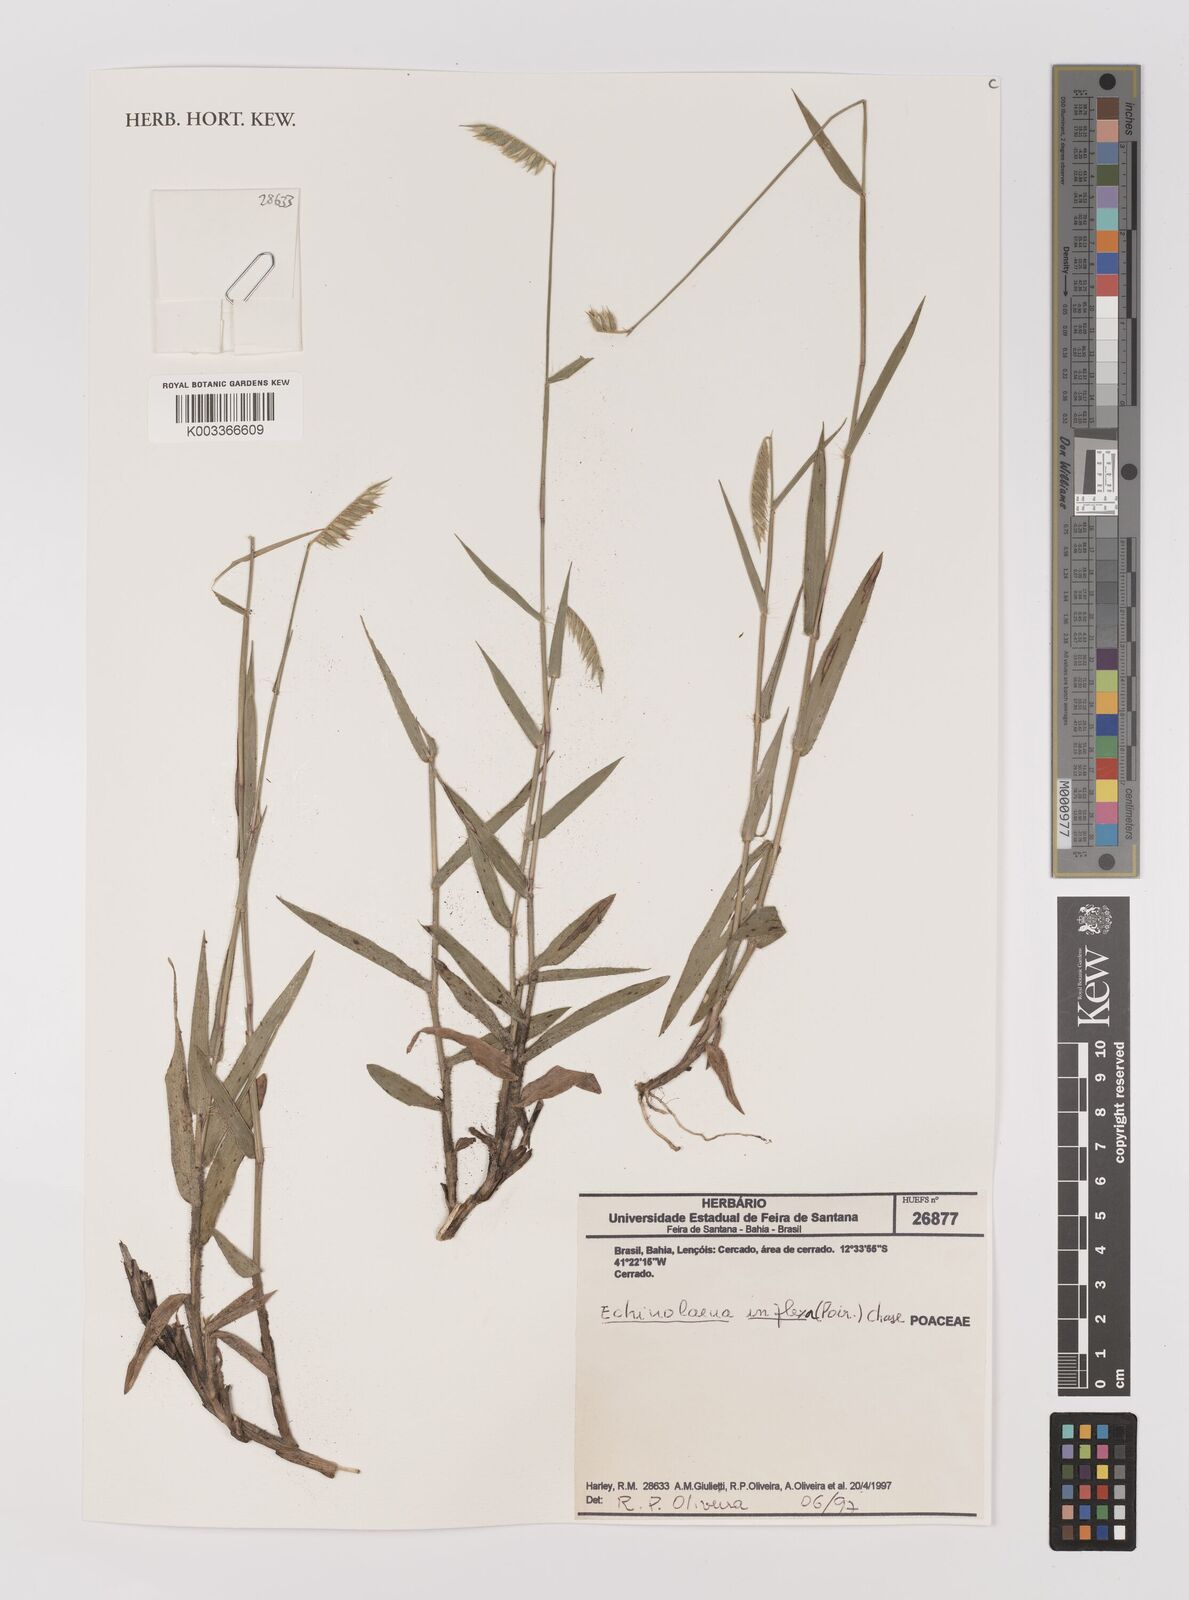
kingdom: Plantae
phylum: Tracheophyta
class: Liliopsida
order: Poales
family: Poaceae
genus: Echinolaena
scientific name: Echinolaena inflexa
